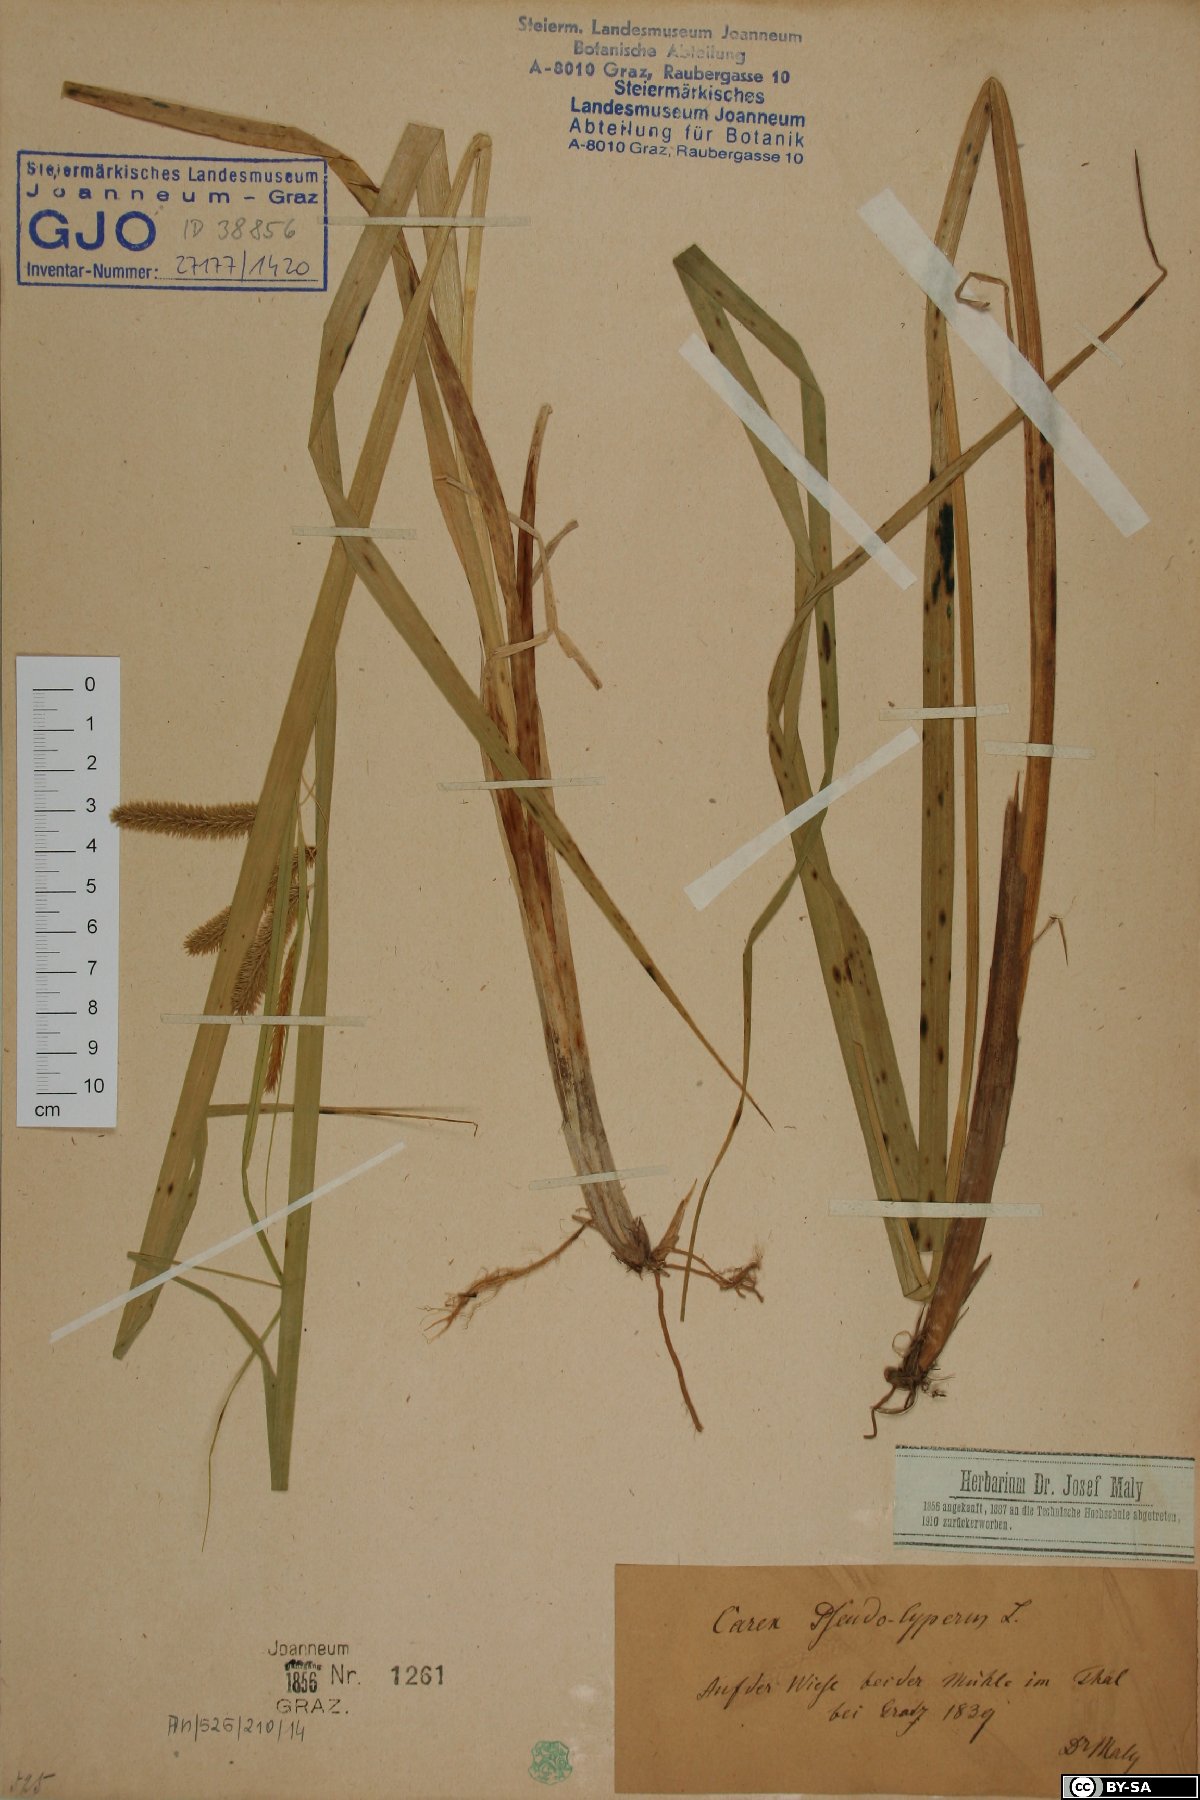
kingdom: Plantae
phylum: Tracheophyta
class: Liliopsida
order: Poales
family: Cyperaceae
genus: Carex
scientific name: Carex pseudocyperus
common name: Cyperus sedge
